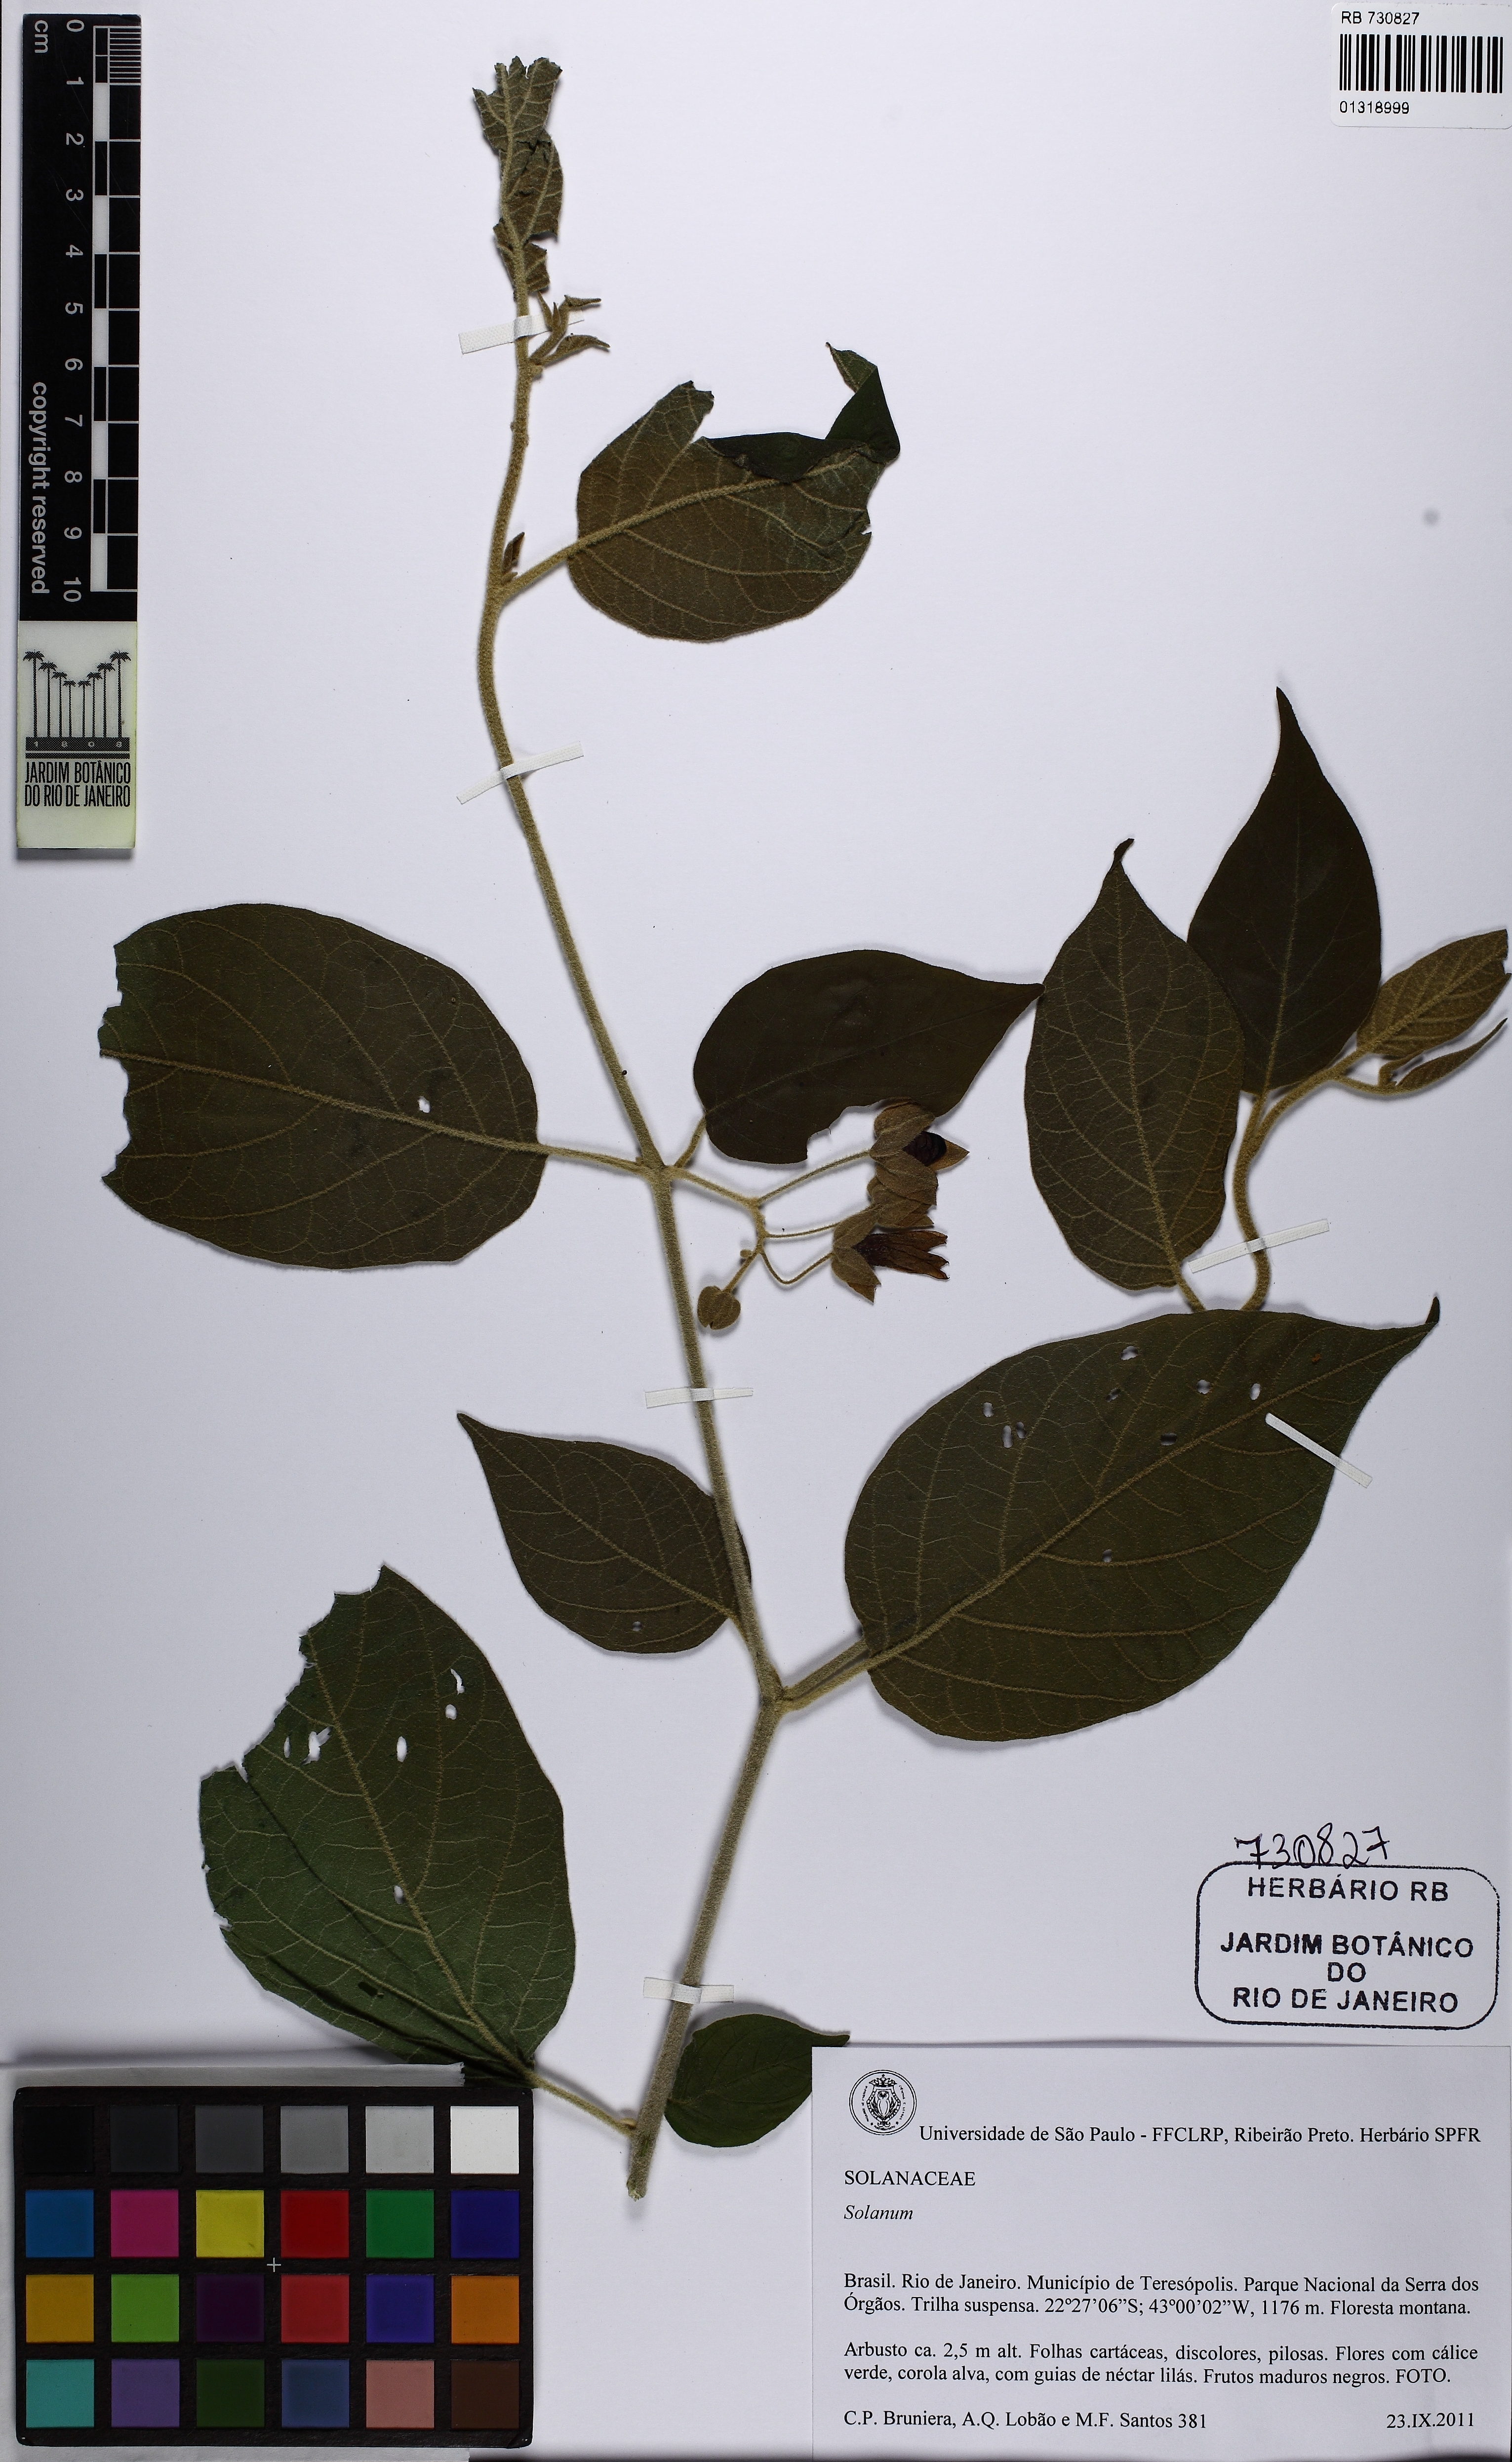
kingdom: Plantae
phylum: Tracheophyta
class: Magnoliopsida
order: Solanales
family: Solanaceae
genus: Solanum
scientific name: Solanum didymum
